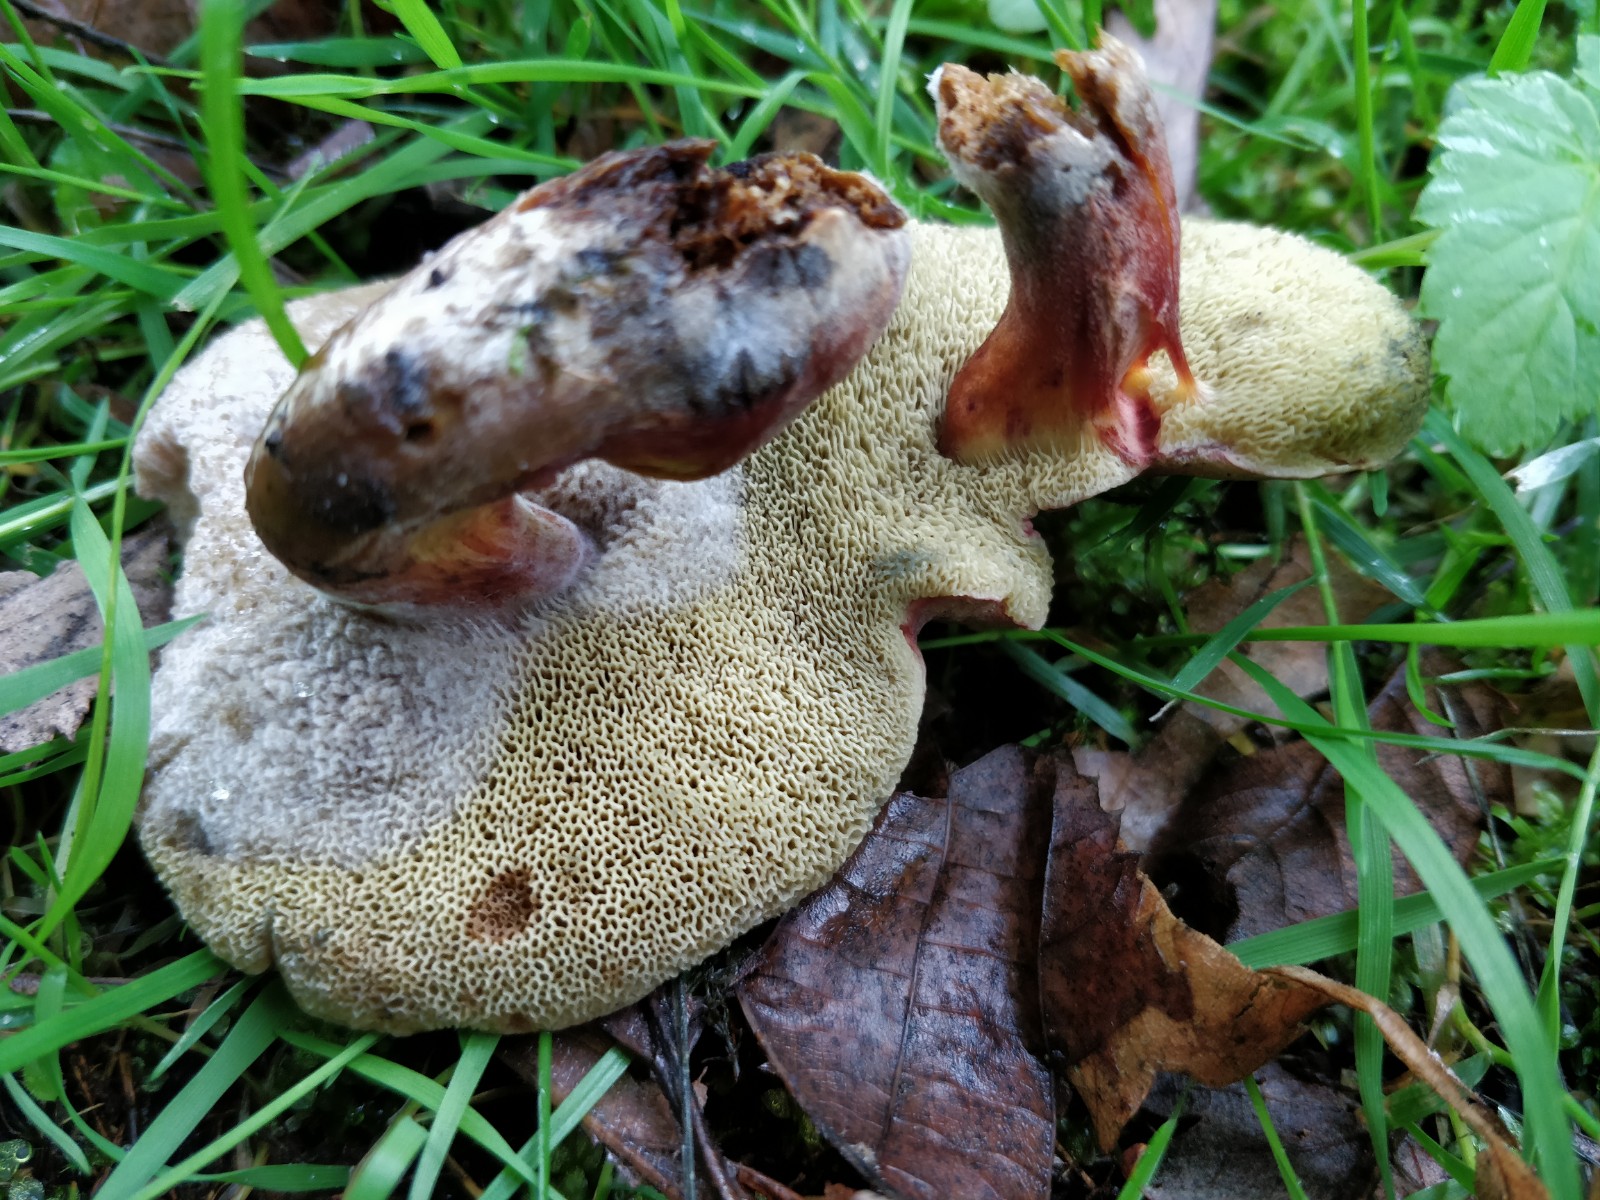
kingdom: Fungi
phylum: Basidiomycota
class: Agaricomycetes
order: Boletales
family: Boletaceae
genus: Xerocomellus
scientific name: Xerocomellus
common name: dværgrørhat
